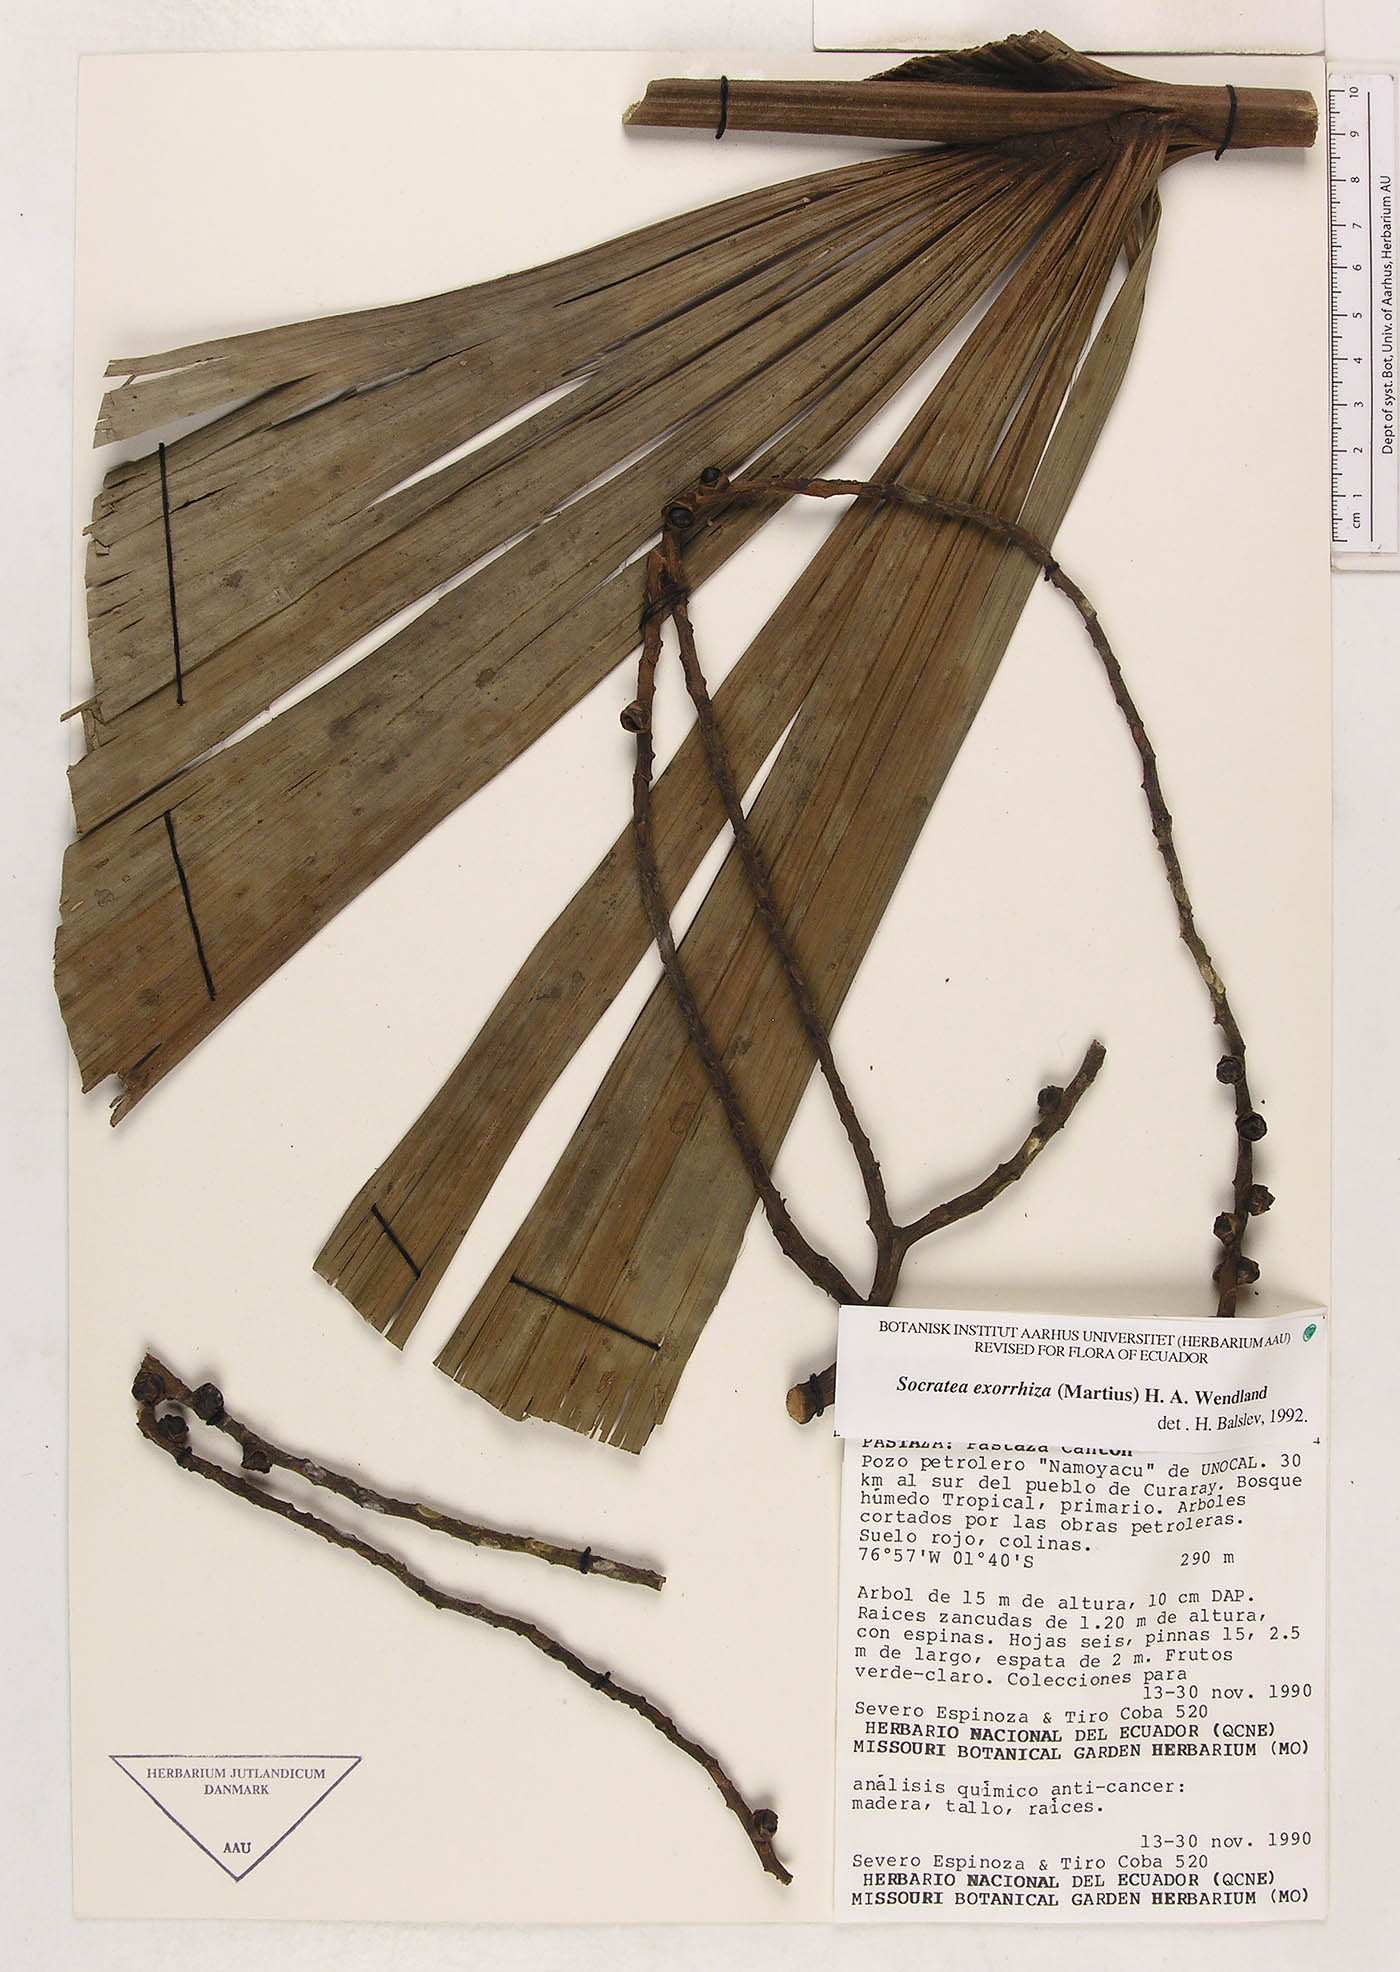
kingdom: Plantae
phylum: Tracheophyta
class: Liliopsida
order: Arecales
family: Arecaceae
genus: Socratea
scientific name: Socratea exorrhiza
